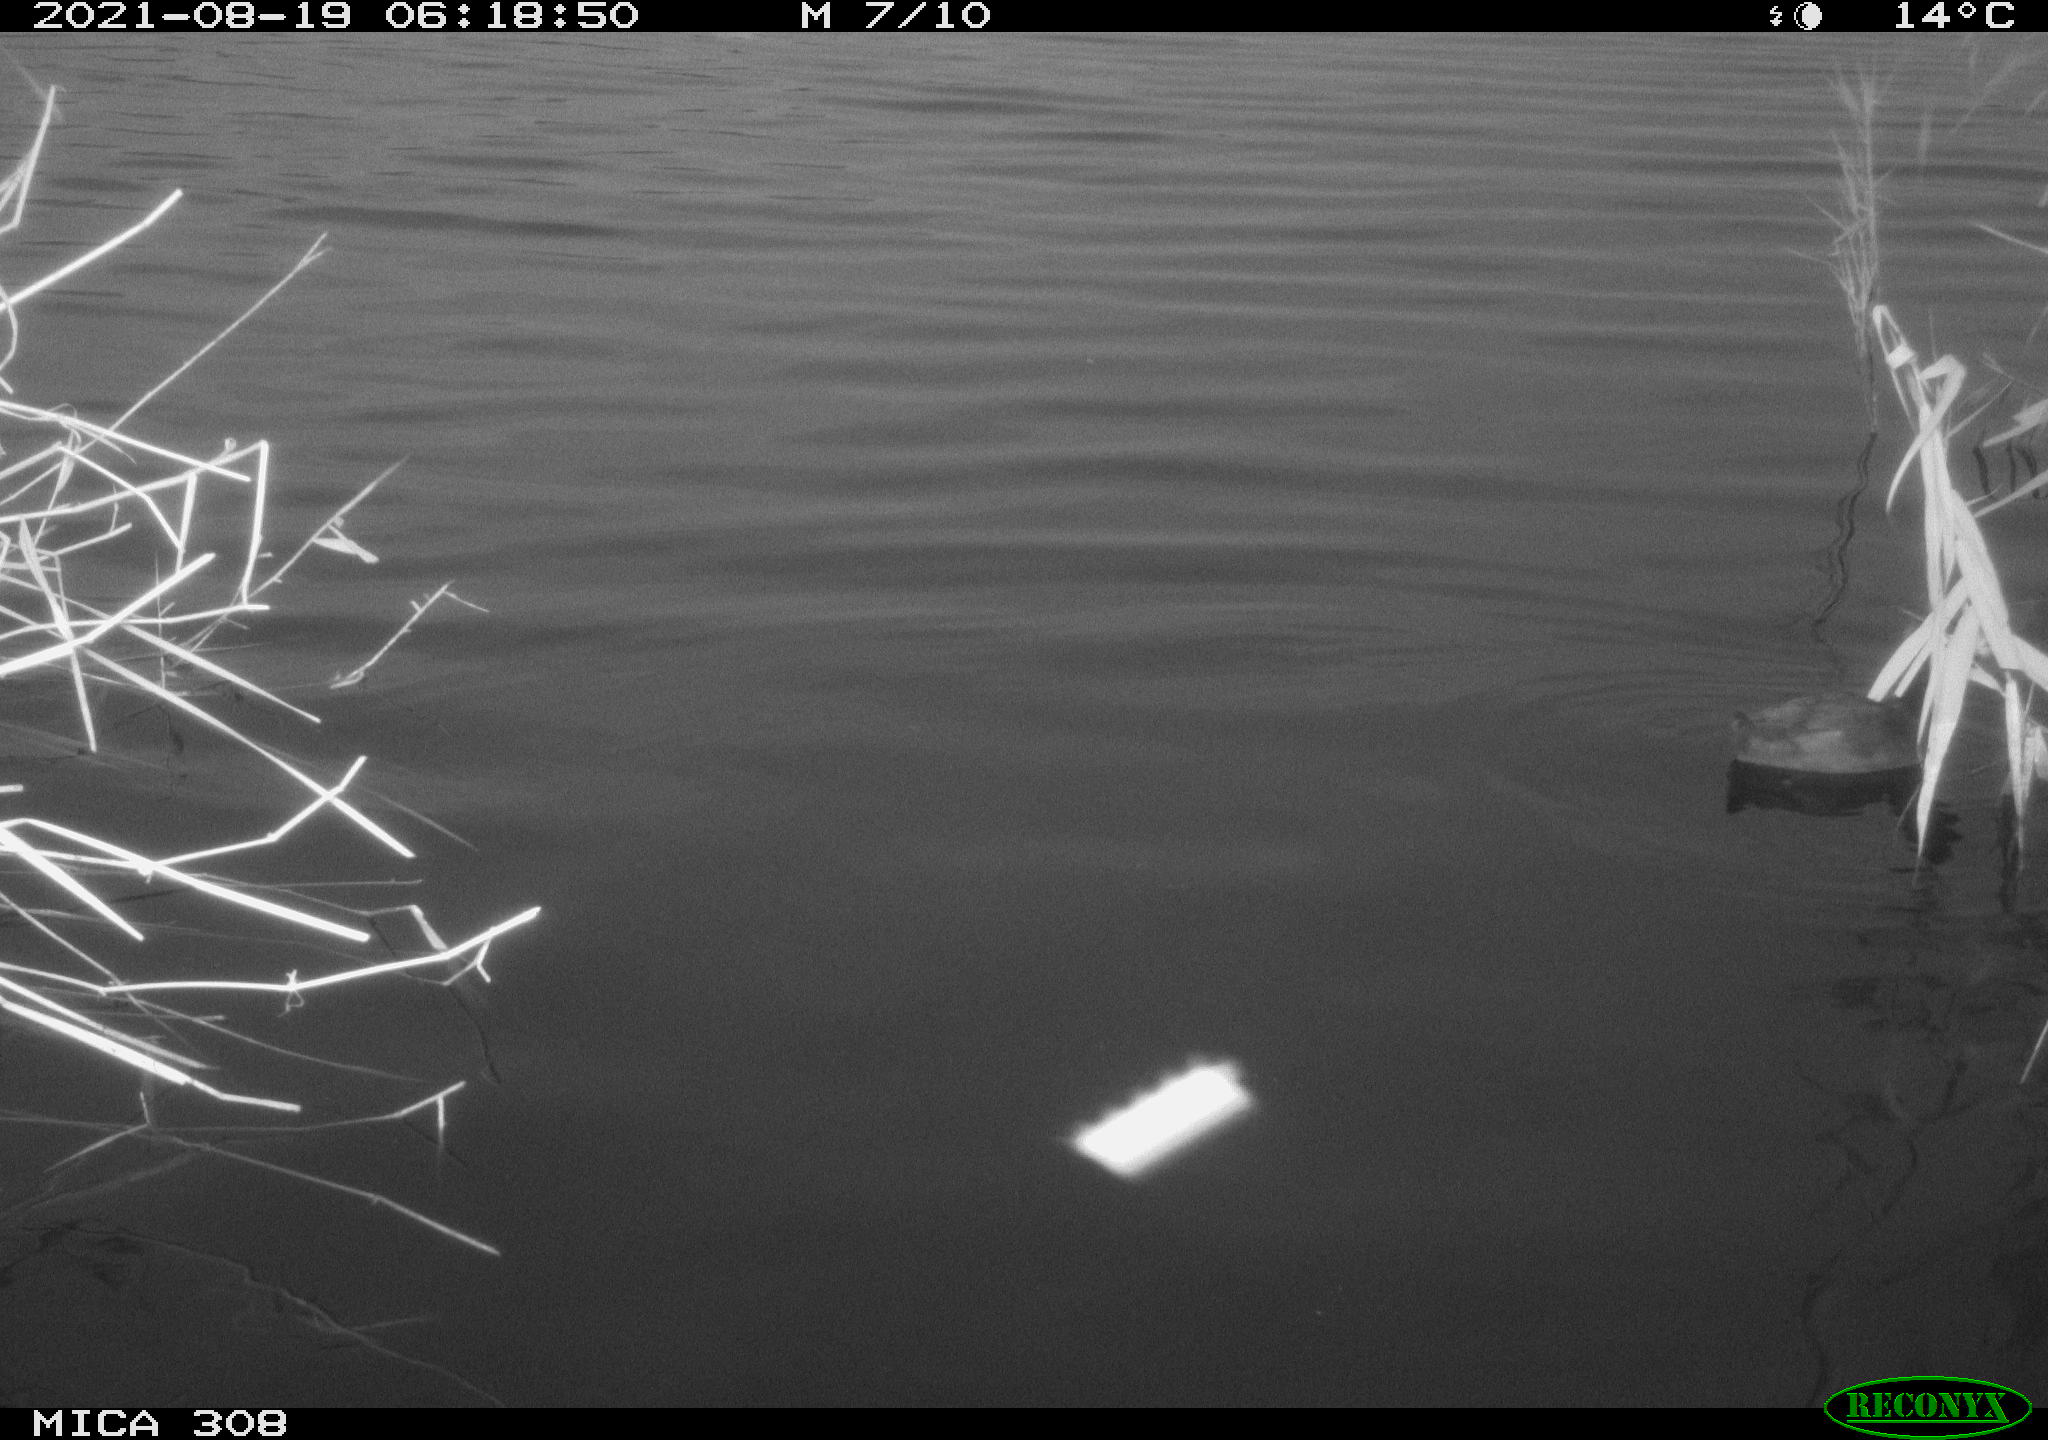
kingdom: Animalia
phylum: Chordata
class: Aves
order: Gruiformes
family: Rallidae
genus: Fulica
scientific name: Fulica atra
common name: Eurasian coot
